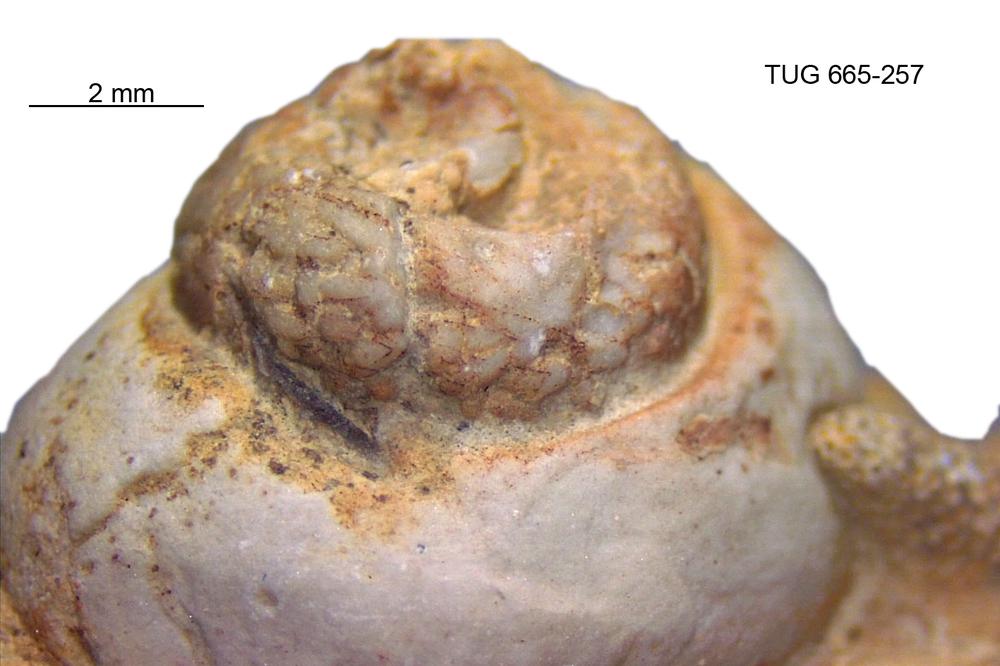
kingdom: Animalia
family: Coprulidae
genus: Coprulus
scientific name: Coprulus
